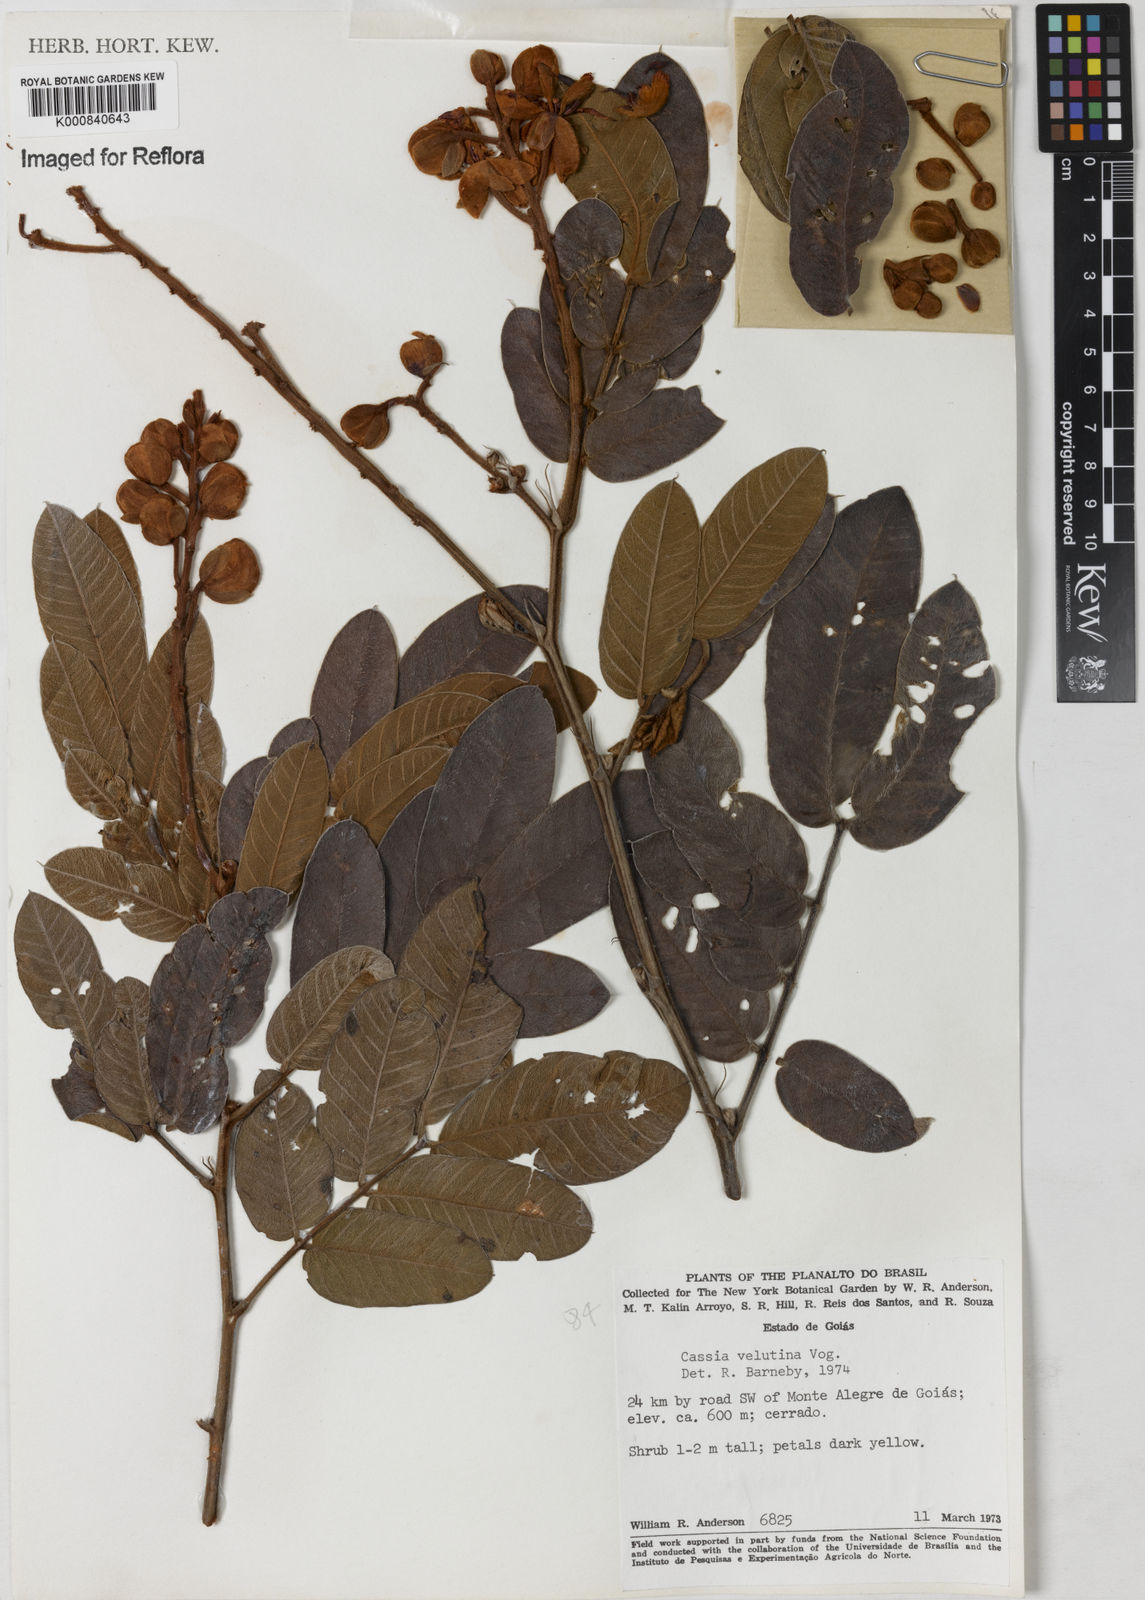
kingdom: Plantae
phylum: Tracheophyta
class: Magnoliopsida
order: Fabales
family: Fabaceae
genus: Senna
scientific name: Senna velutina
